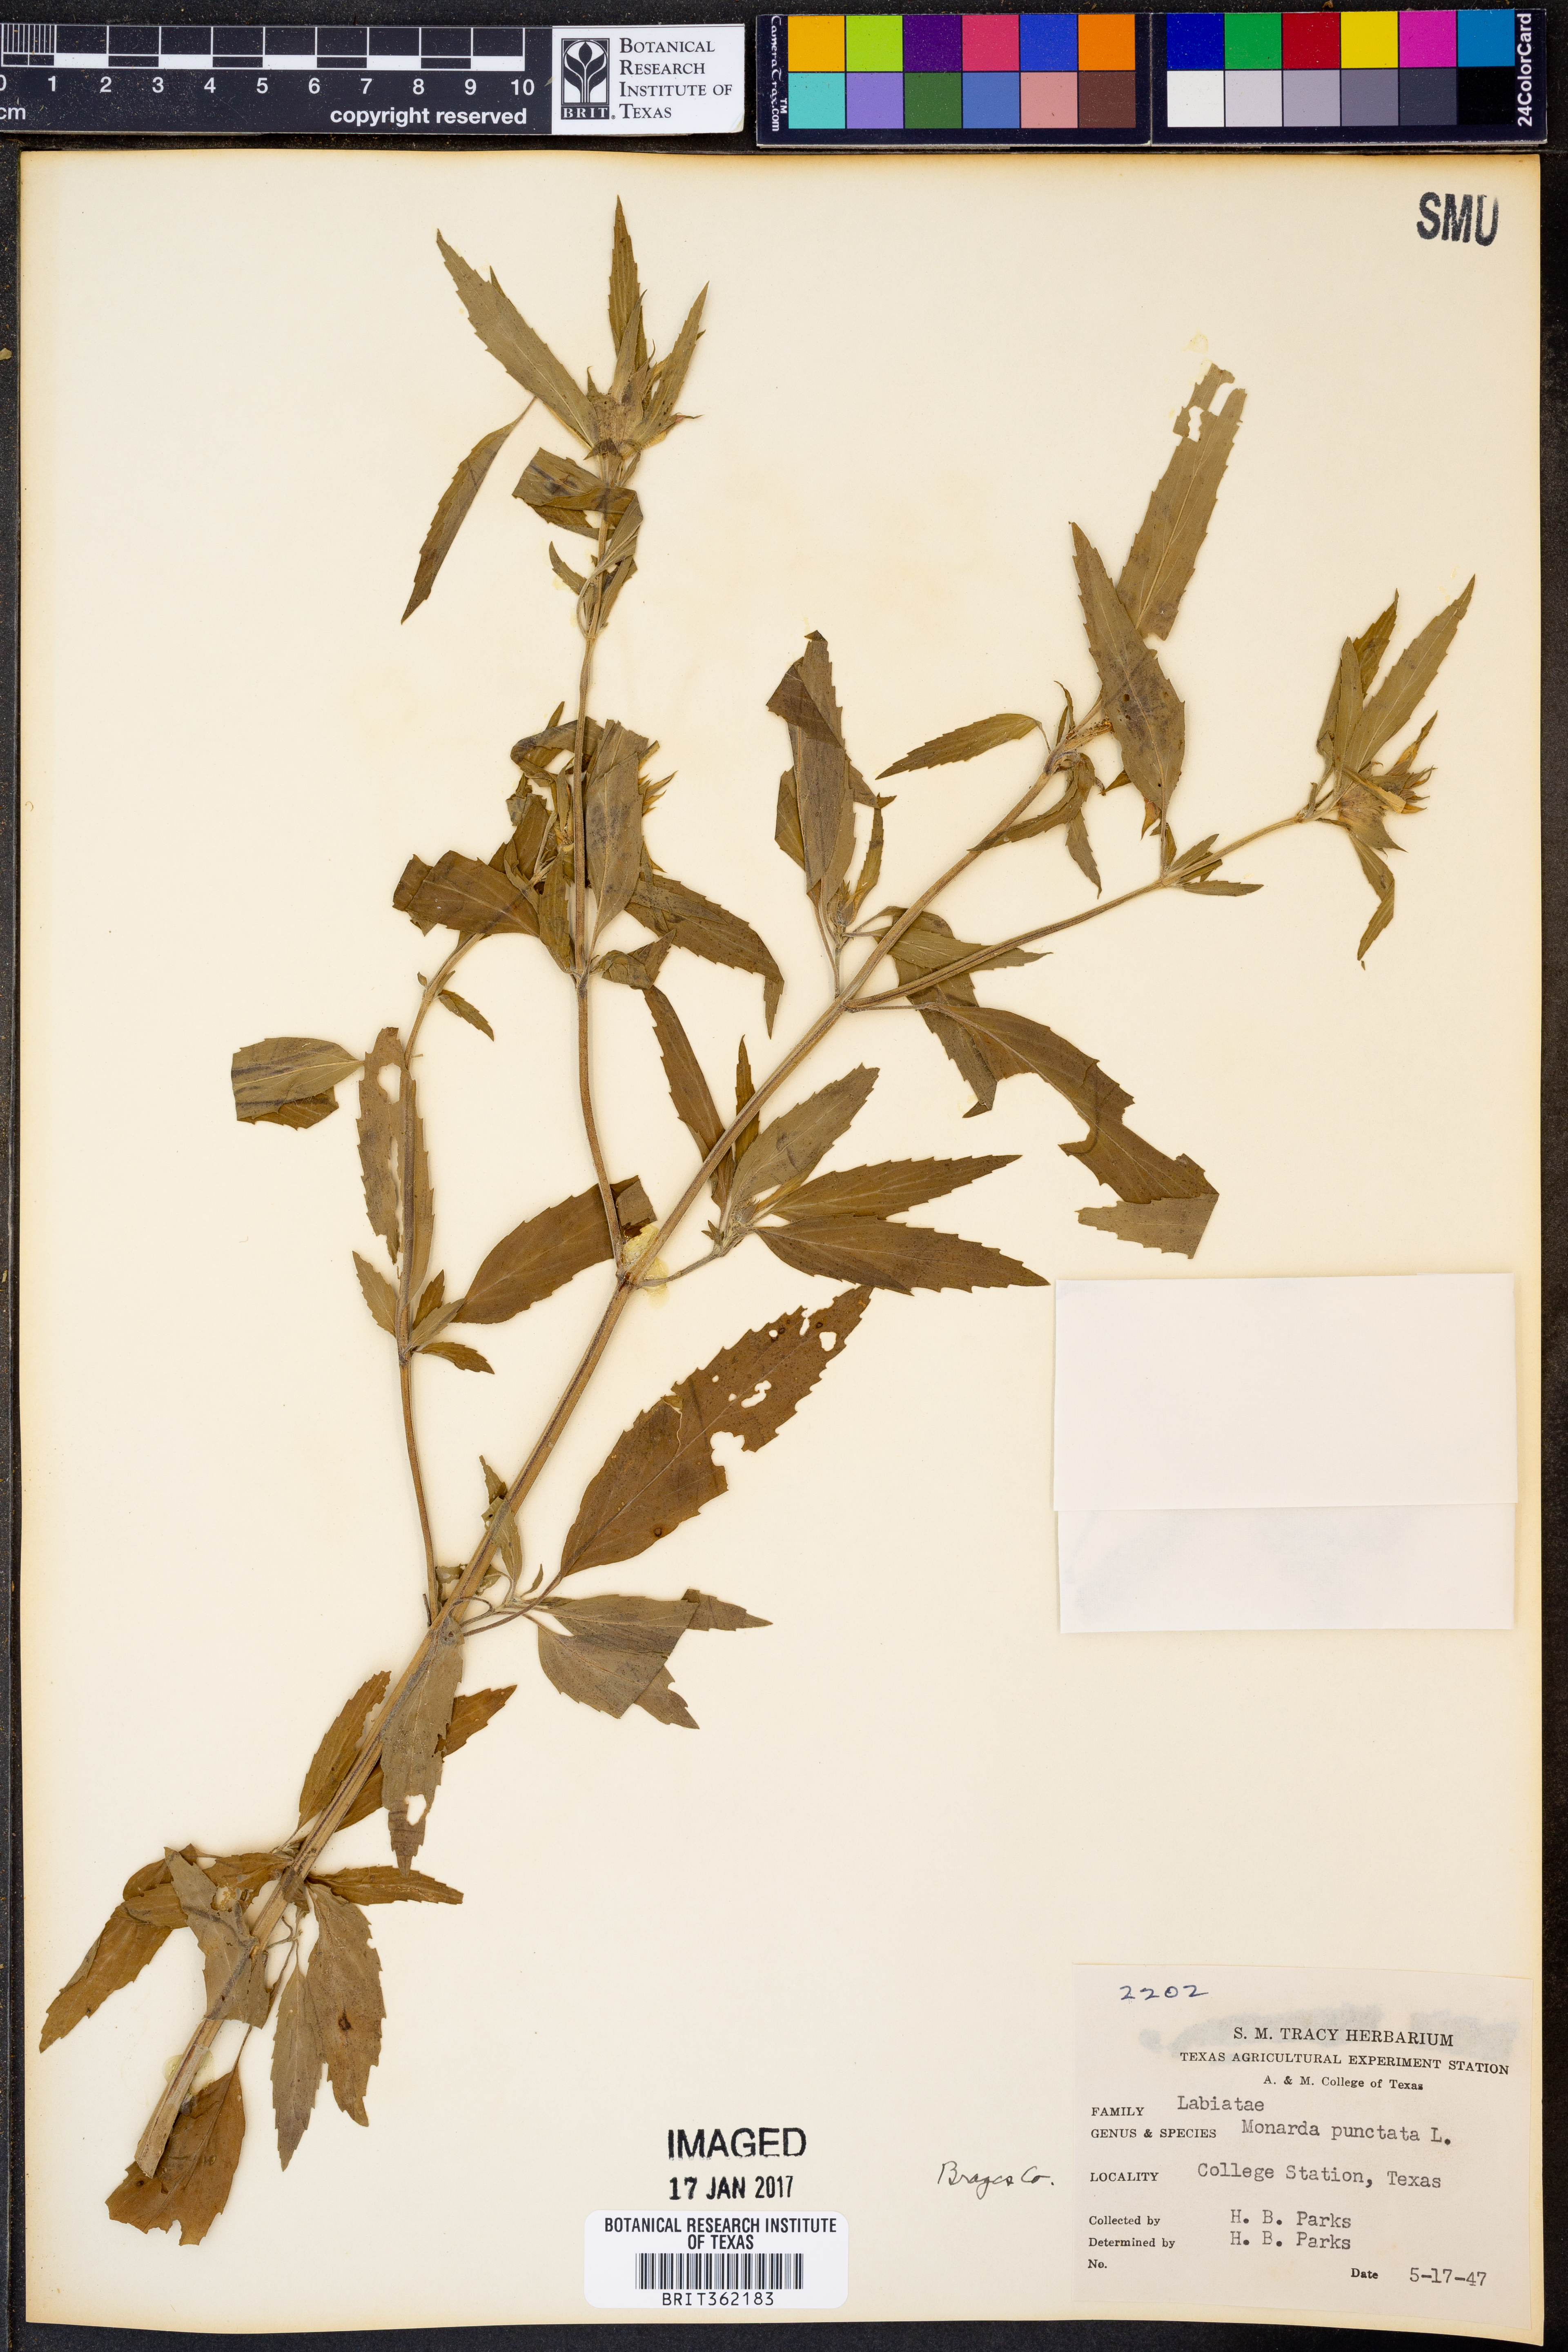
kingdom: Plantae
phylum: Tracheophyta
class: Magnoliopsida
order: Lamiales
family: Lamiaceae
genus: Monarda
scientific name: Monarda punctata
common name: Dotted monarda
